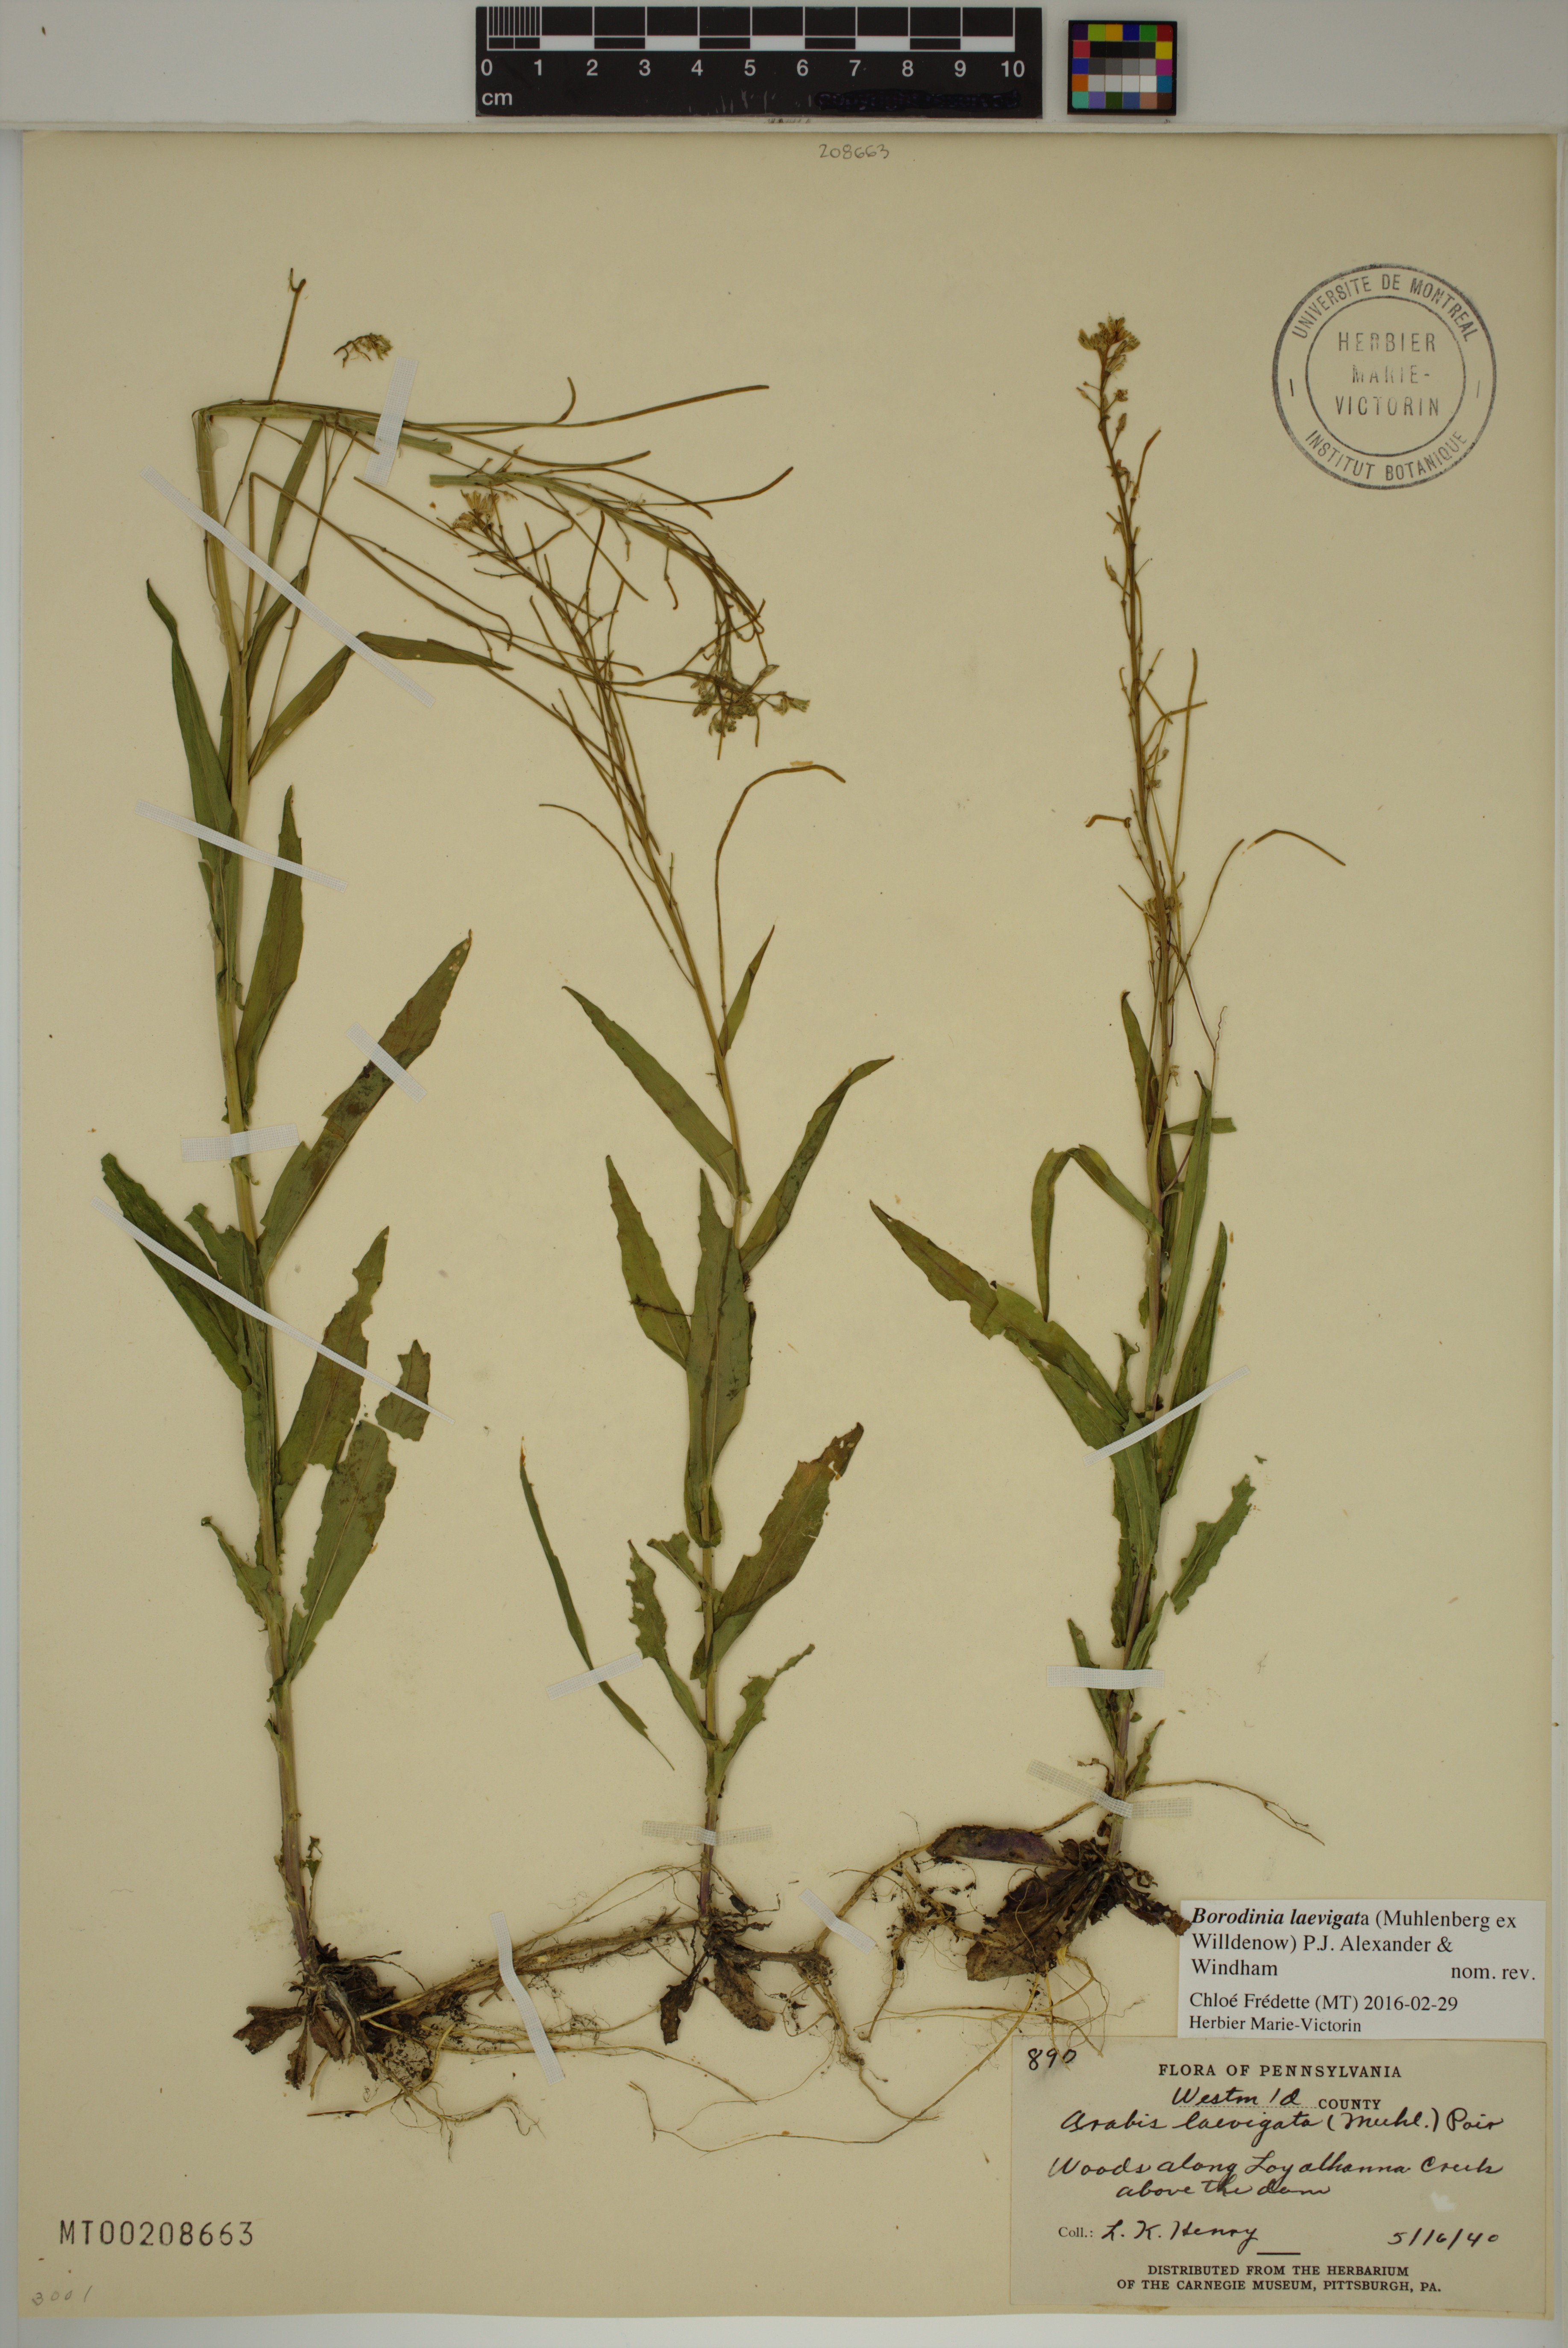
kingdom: Plantae
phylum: Tracheophyta
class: Magnoliopsida
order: Brassicales
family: Brassicaceae
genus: Borodinia
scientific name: Borodinia laevigata
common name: Smooth rockcress
